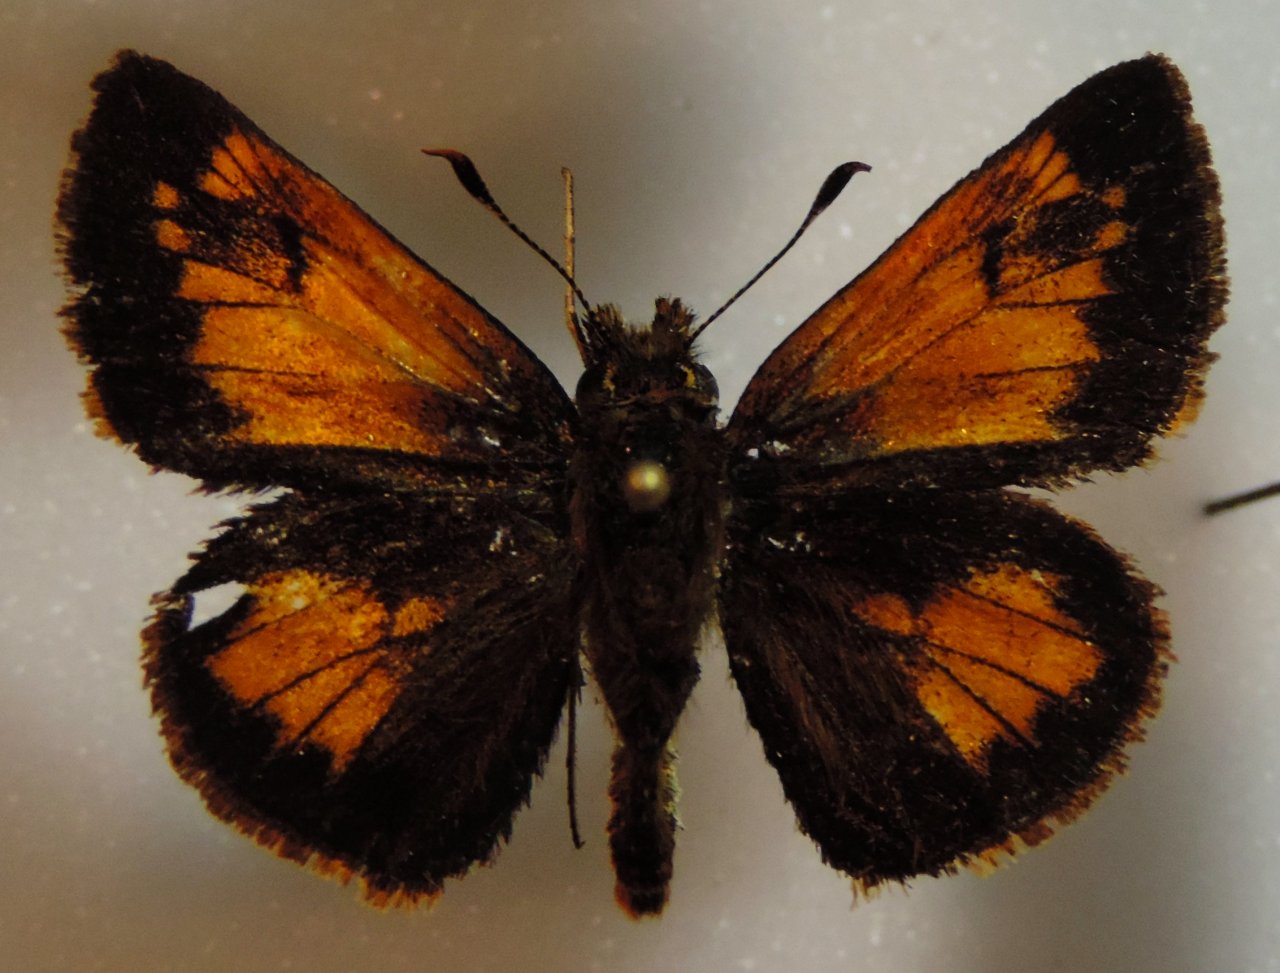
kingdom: Animalia
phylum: Arthropoda
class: Insecta
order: Lepidoptera
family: Hesperiidae
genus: Lon
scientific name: Lon hobomok
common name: Hobomok Skipper
